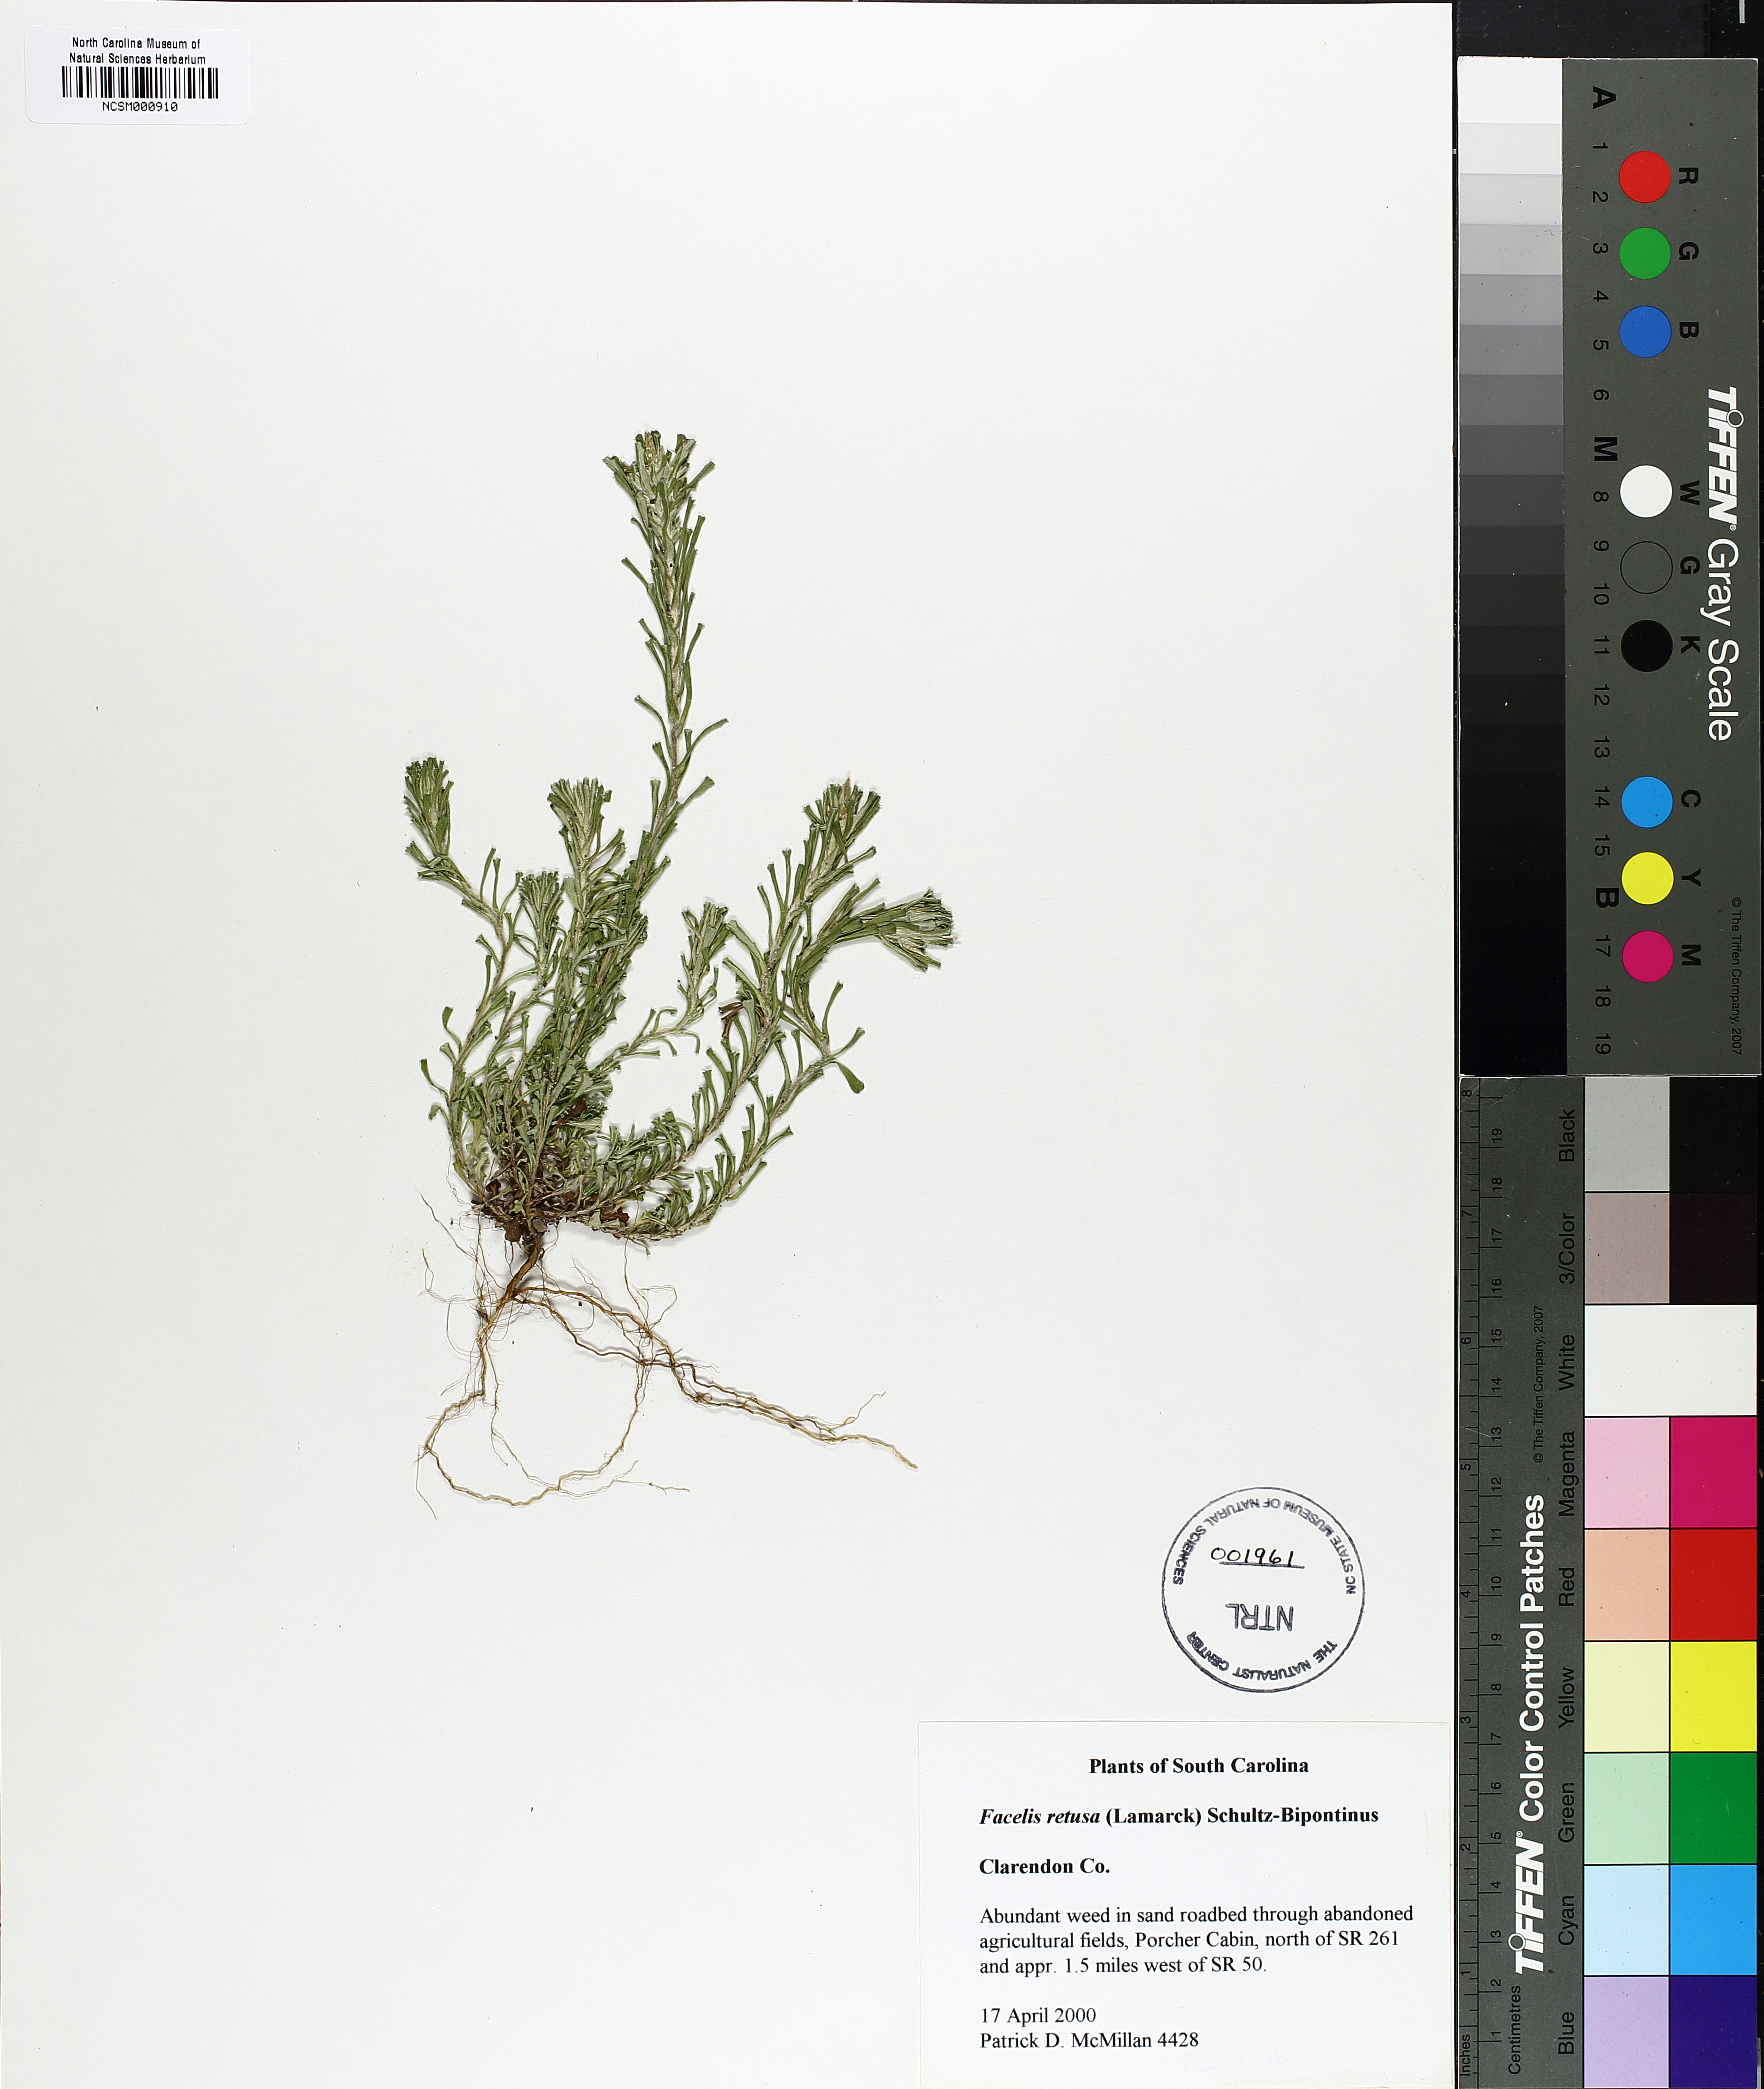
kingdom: Plantae
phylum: Tracheophyta
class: Magnoliopsida
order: Asterales
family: Asteraceae
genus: Facelis
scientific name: Facelis retusa
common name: Annual trampweed
